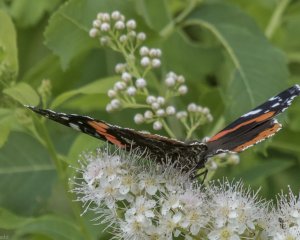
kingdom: Animalia
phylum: Arthropoda
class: Insecta
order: Lepidoptera
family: Nymphalidae
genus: Vanessa
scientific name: Vanessa atalanta
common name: Red Admiral
